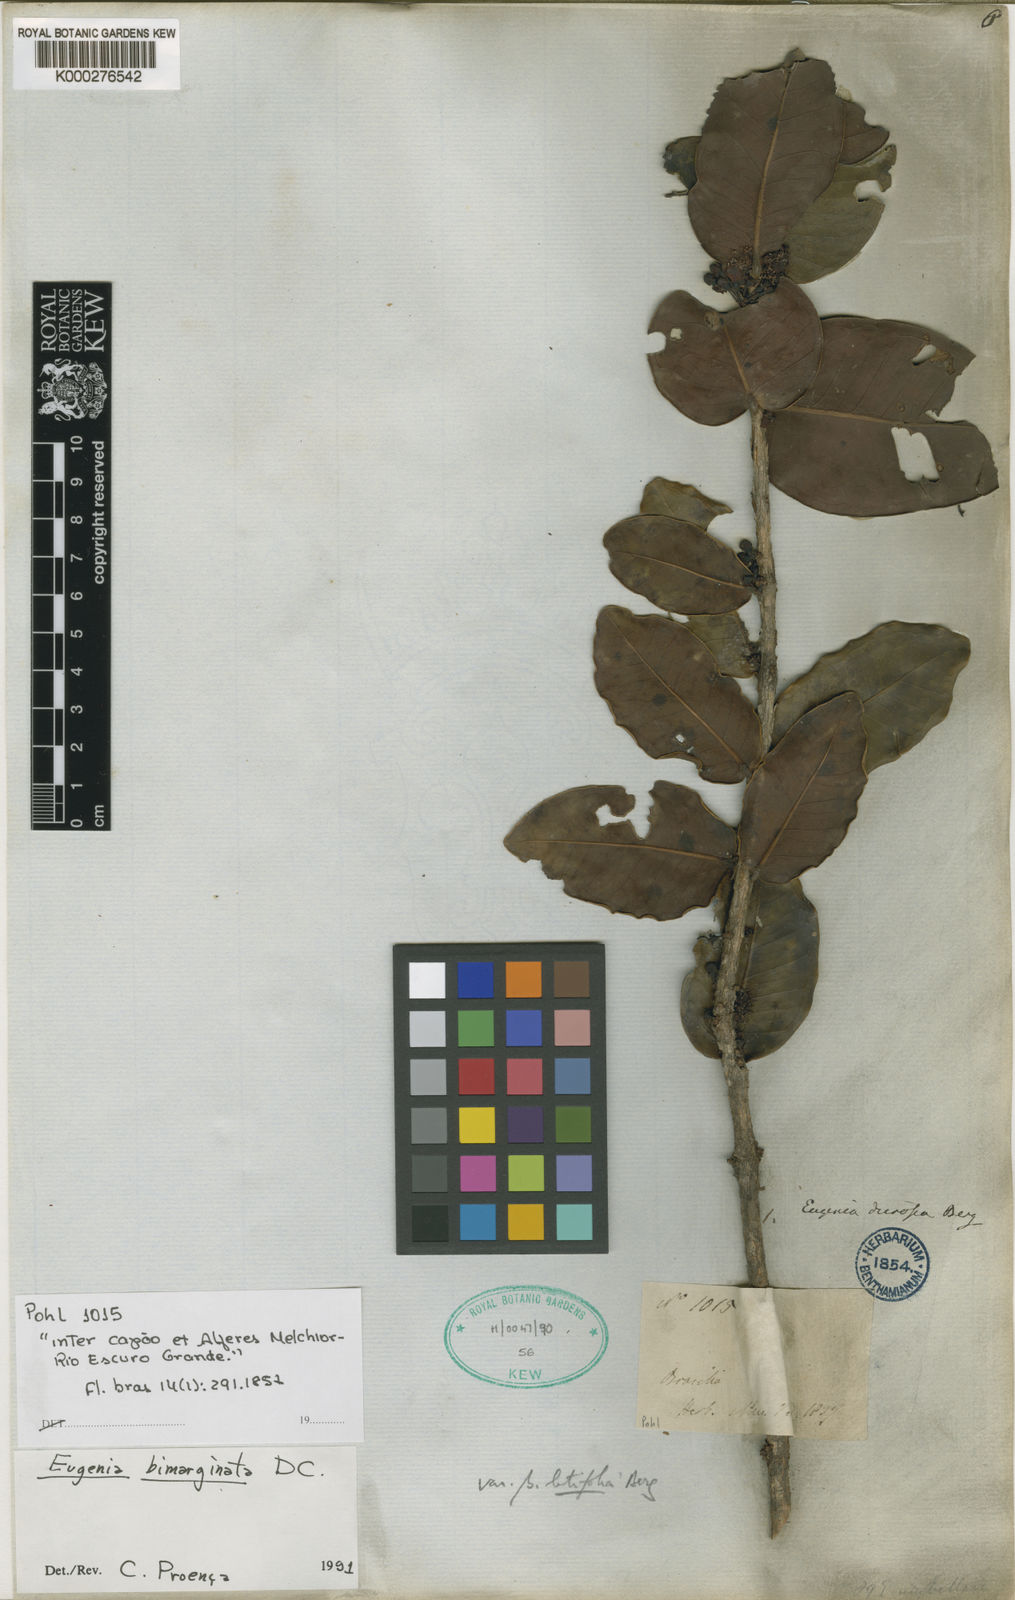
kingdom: Plantae
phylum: Tracheophyta
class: Magnoliopsida
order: Myrtales
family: Myrtaceae
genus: Eugenia
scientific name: Eugenia bimarginata
